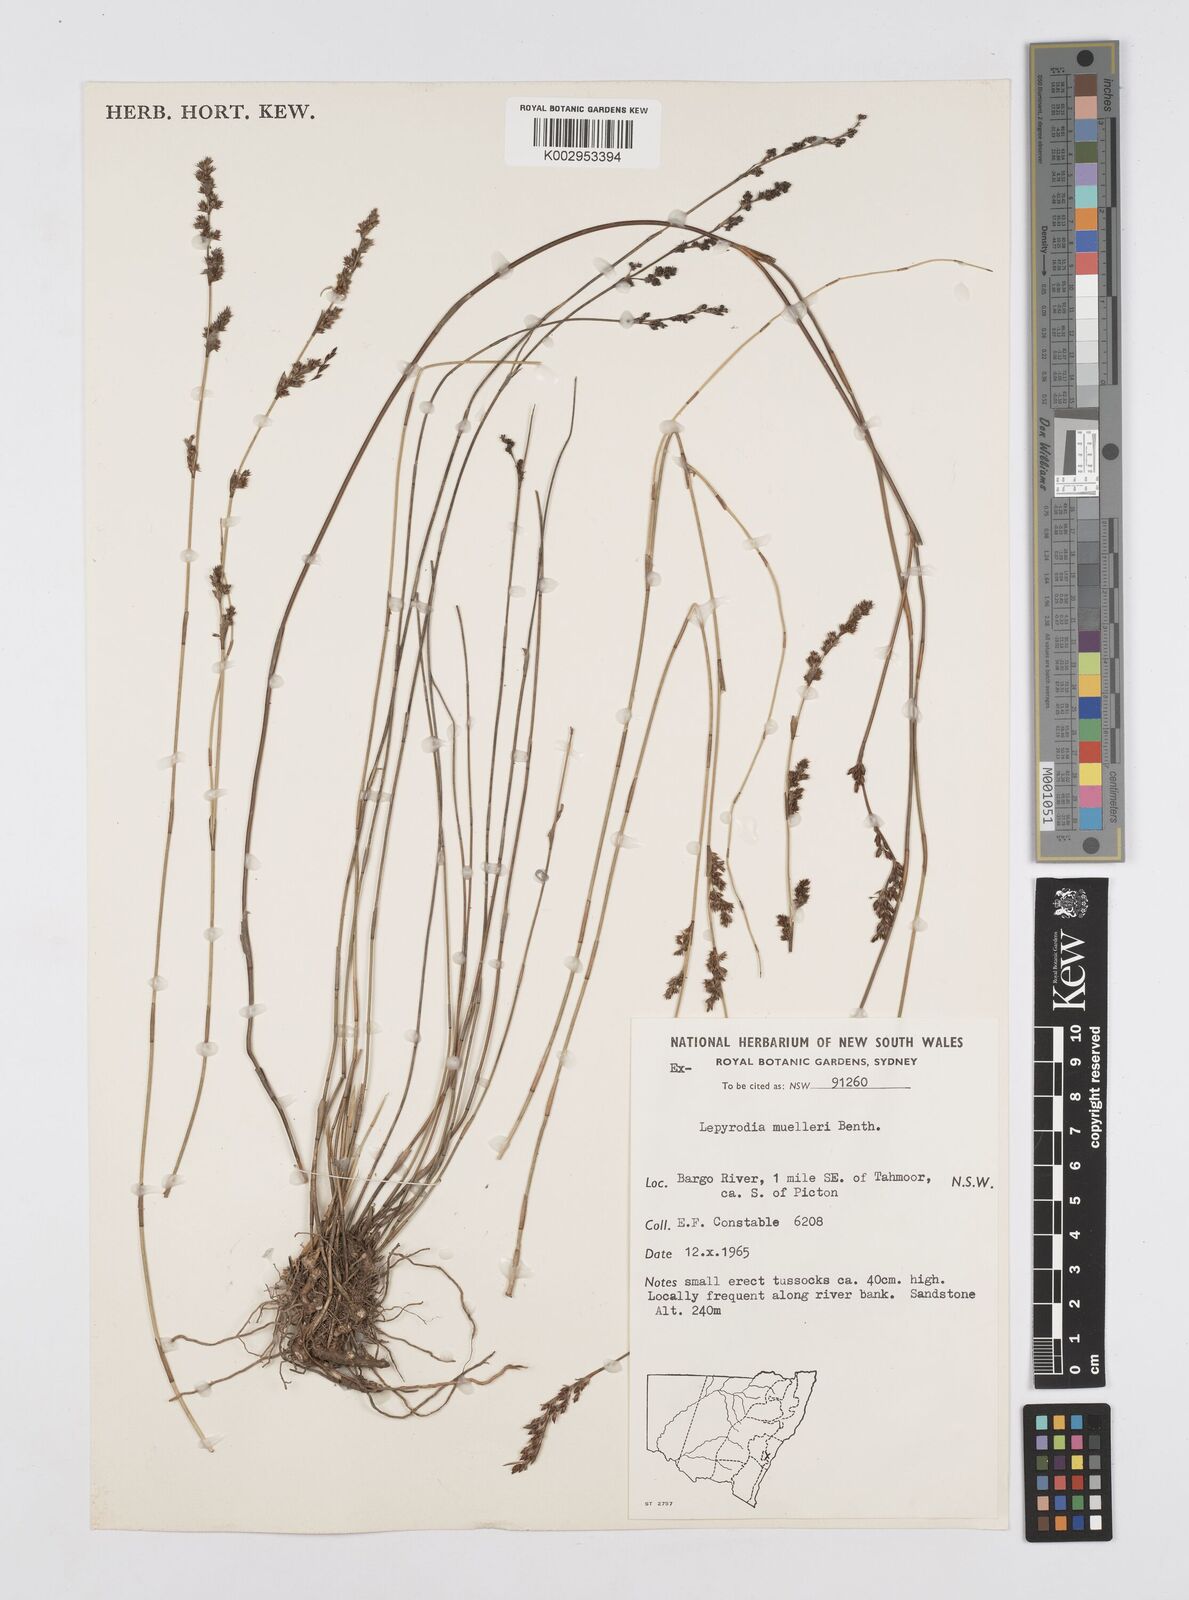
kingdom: Plantae
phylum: Tracheophyta
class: Liliopsida
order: Poales
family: Restionaceae
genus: Lepyrodia
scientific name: Lepyrodia muelleri
